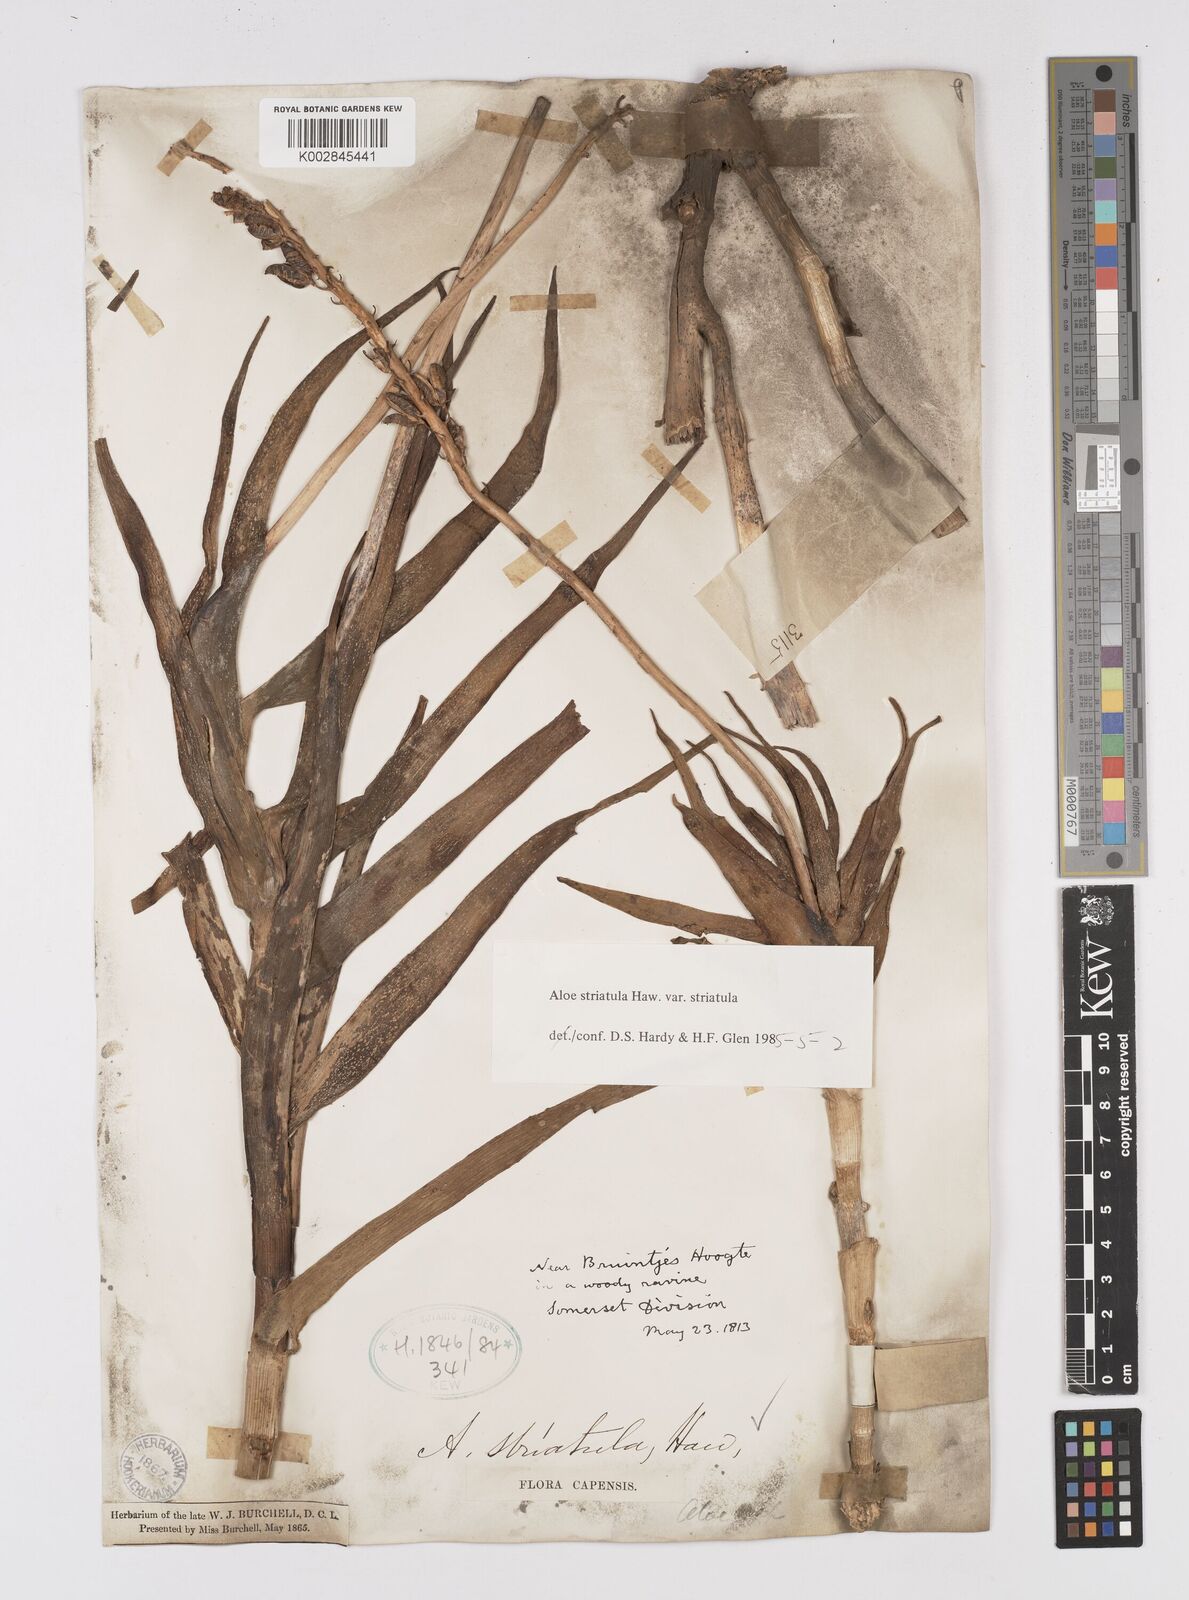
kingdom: Plantae
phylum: Tracheophyta
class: Liliopsida
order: Asparagales
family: Asphodelaceae
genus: Aloiampelos
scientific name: Aloiampelos striatula
